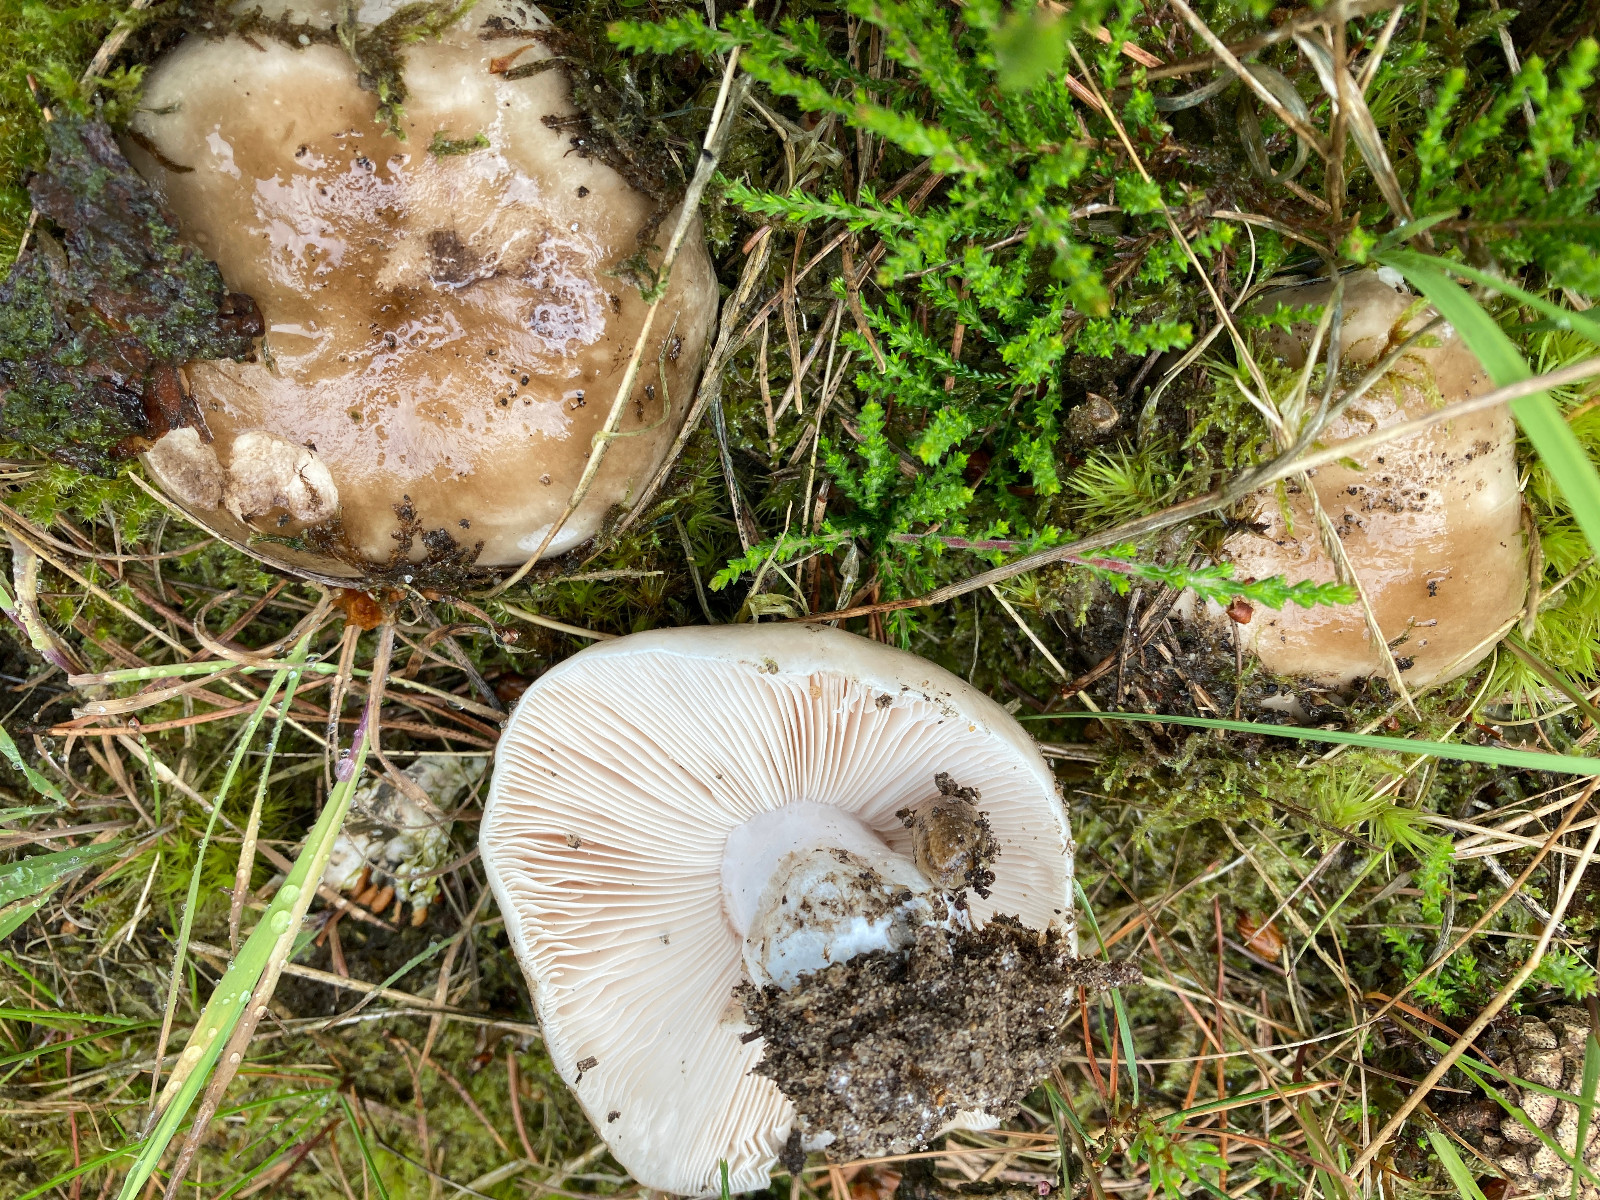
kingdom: Fungi
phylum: Basidiomycota
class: Agaricomycetes
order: Russulales
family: Russulaceae
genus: Russula
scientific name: Russula adusta
